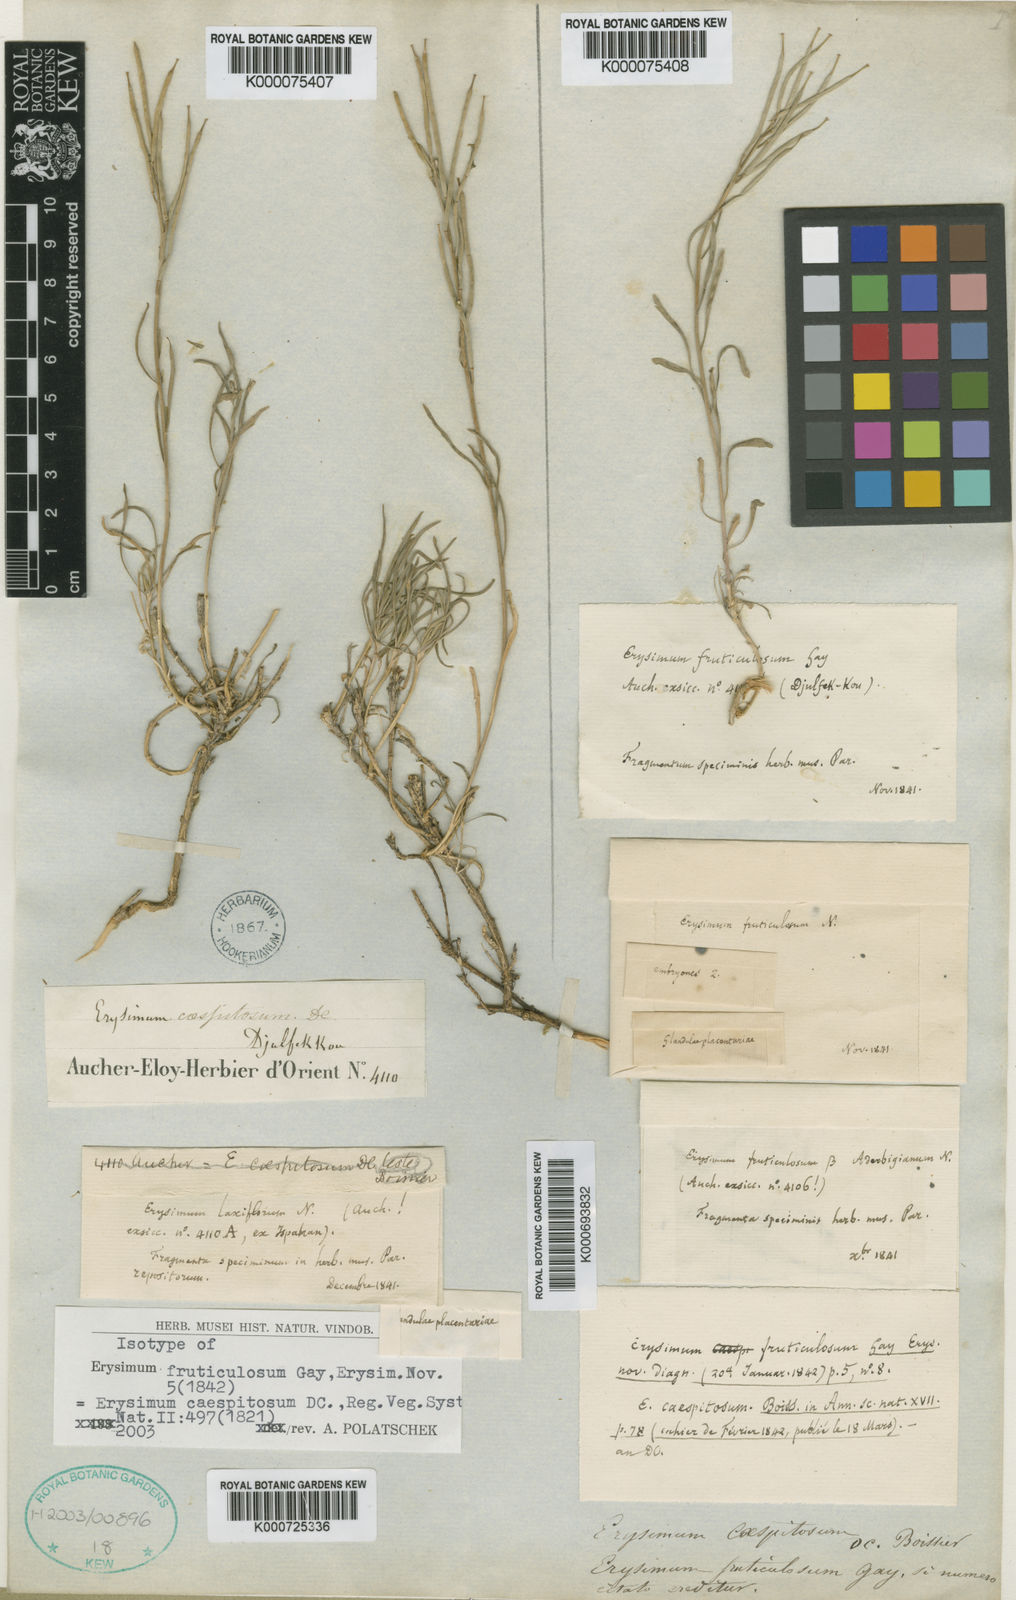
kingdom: Plantae
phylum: Tracheophyta
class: Magnoliopsida
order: Brassicales
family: Brassicaceae
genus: Erysimum
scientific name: Erysimum caespitosum
